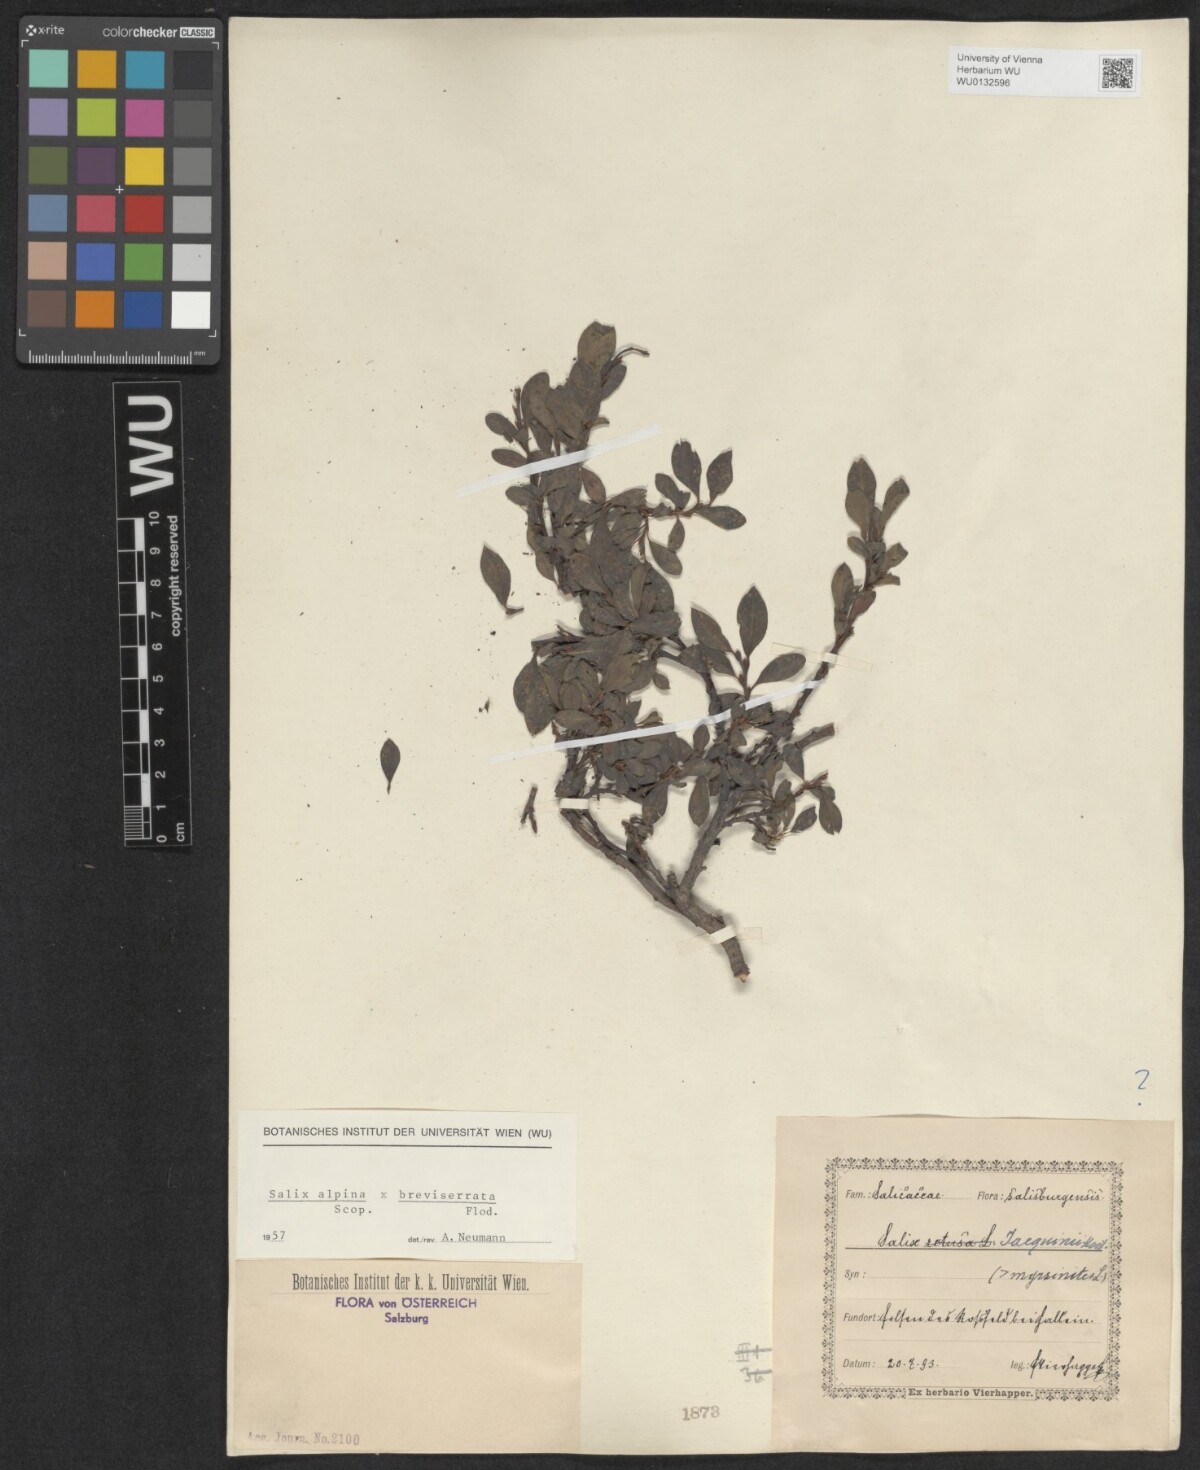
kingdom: Plantae
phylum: Tracheophyta
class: Magnoliopsida
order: Malpighiales
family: Salicaceae
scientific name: Salicaceae
